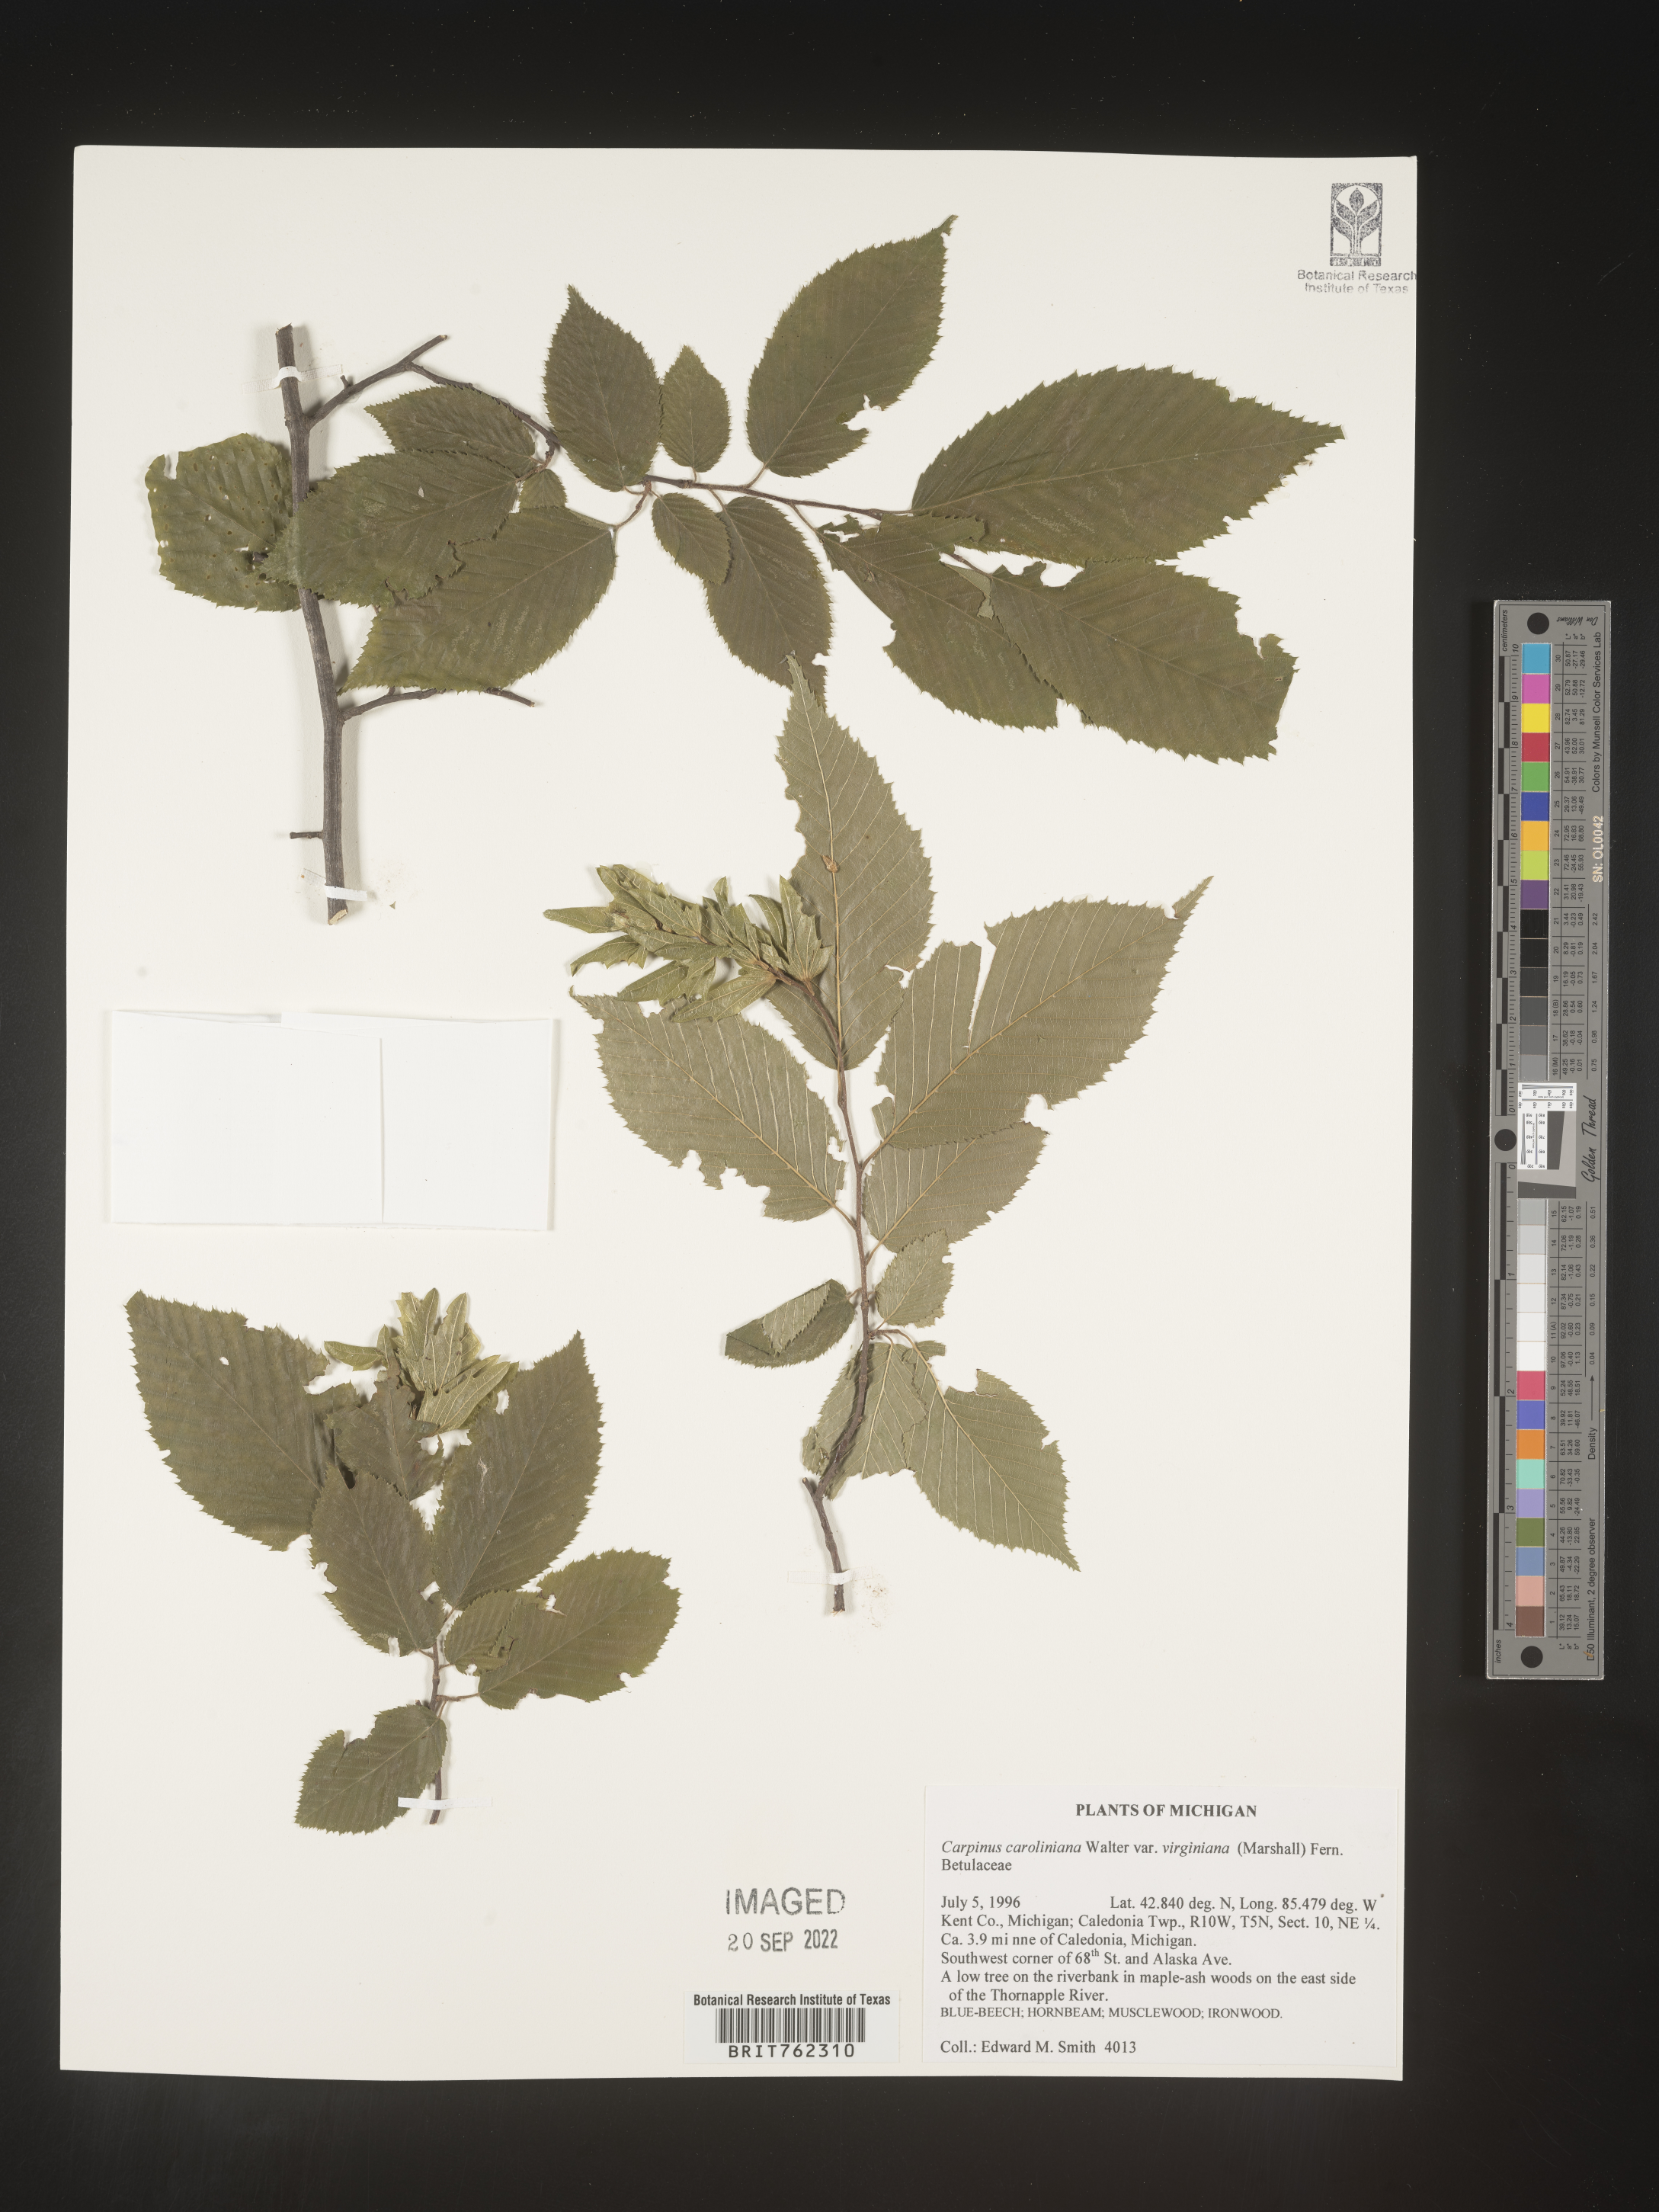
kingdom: Plantae
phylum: Tracheophyta
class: Magnoliopsida
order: Fagales
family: Betulaceae
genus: Carpinus
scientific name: Carpinus caroliniana
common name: American hornbeam
